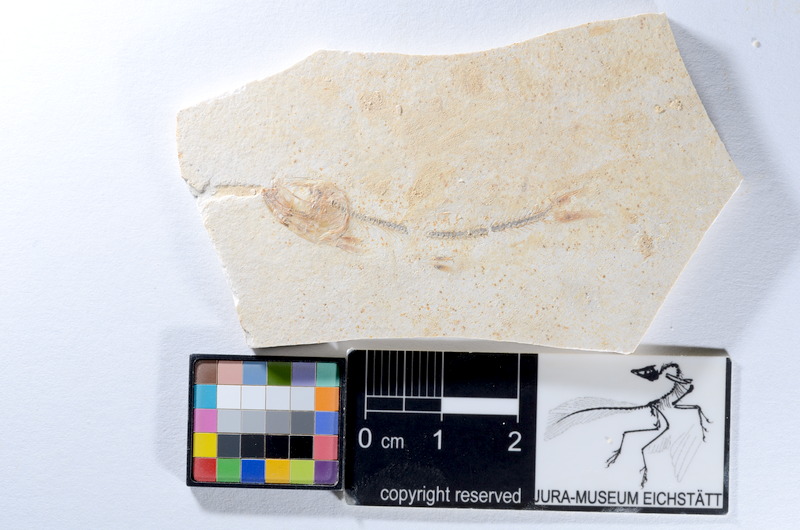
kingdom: Animalia
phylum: Chordata
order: Salmoniformes
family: Orthogonikleithridae
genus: Orthogonikleithrus
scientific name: Orthogonikleithrus hoelli
